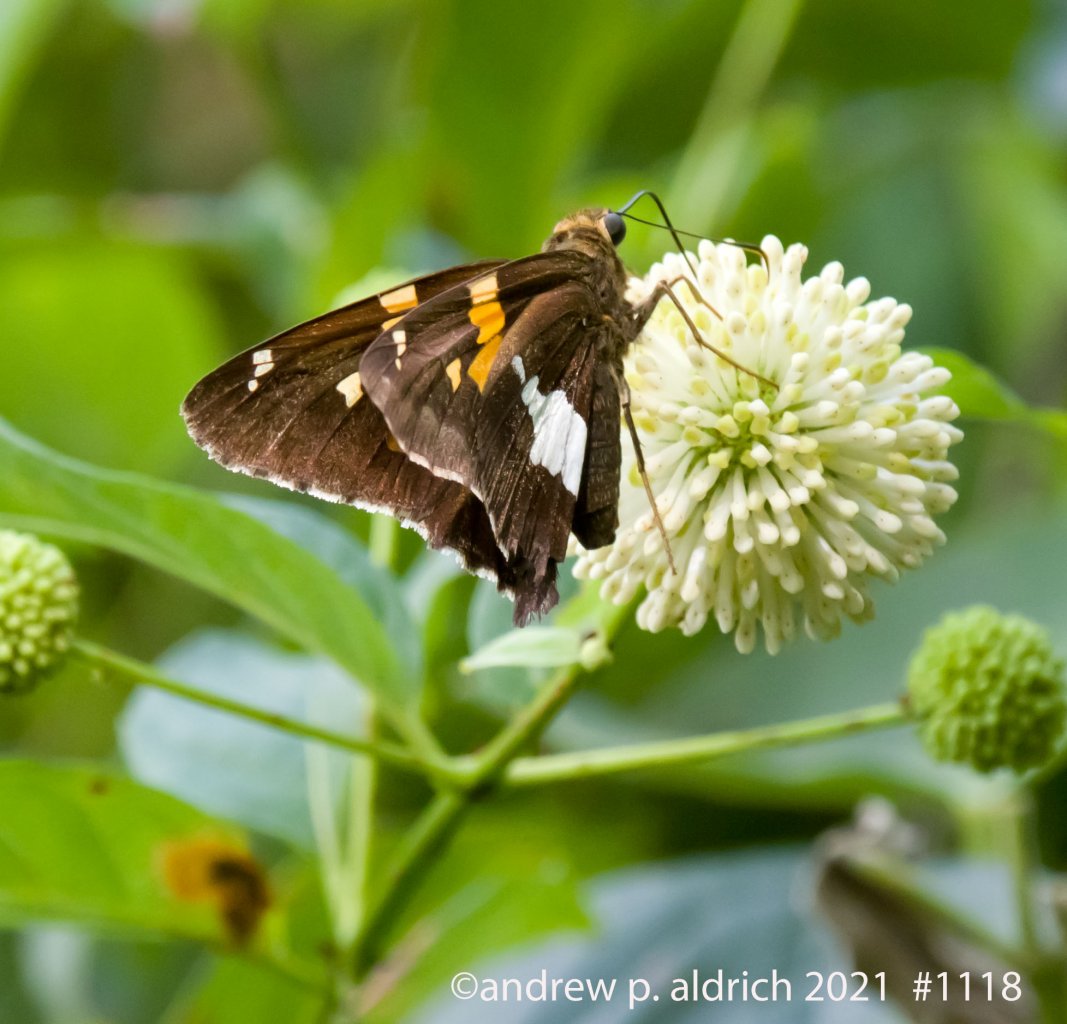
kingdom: Animalia
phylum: Arthropoda
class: Insecta
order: Lepidoptera
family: Hesperiidae
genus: Epargyreus
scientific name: Epargyreus clarus
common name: Silver-spotted Skipper
